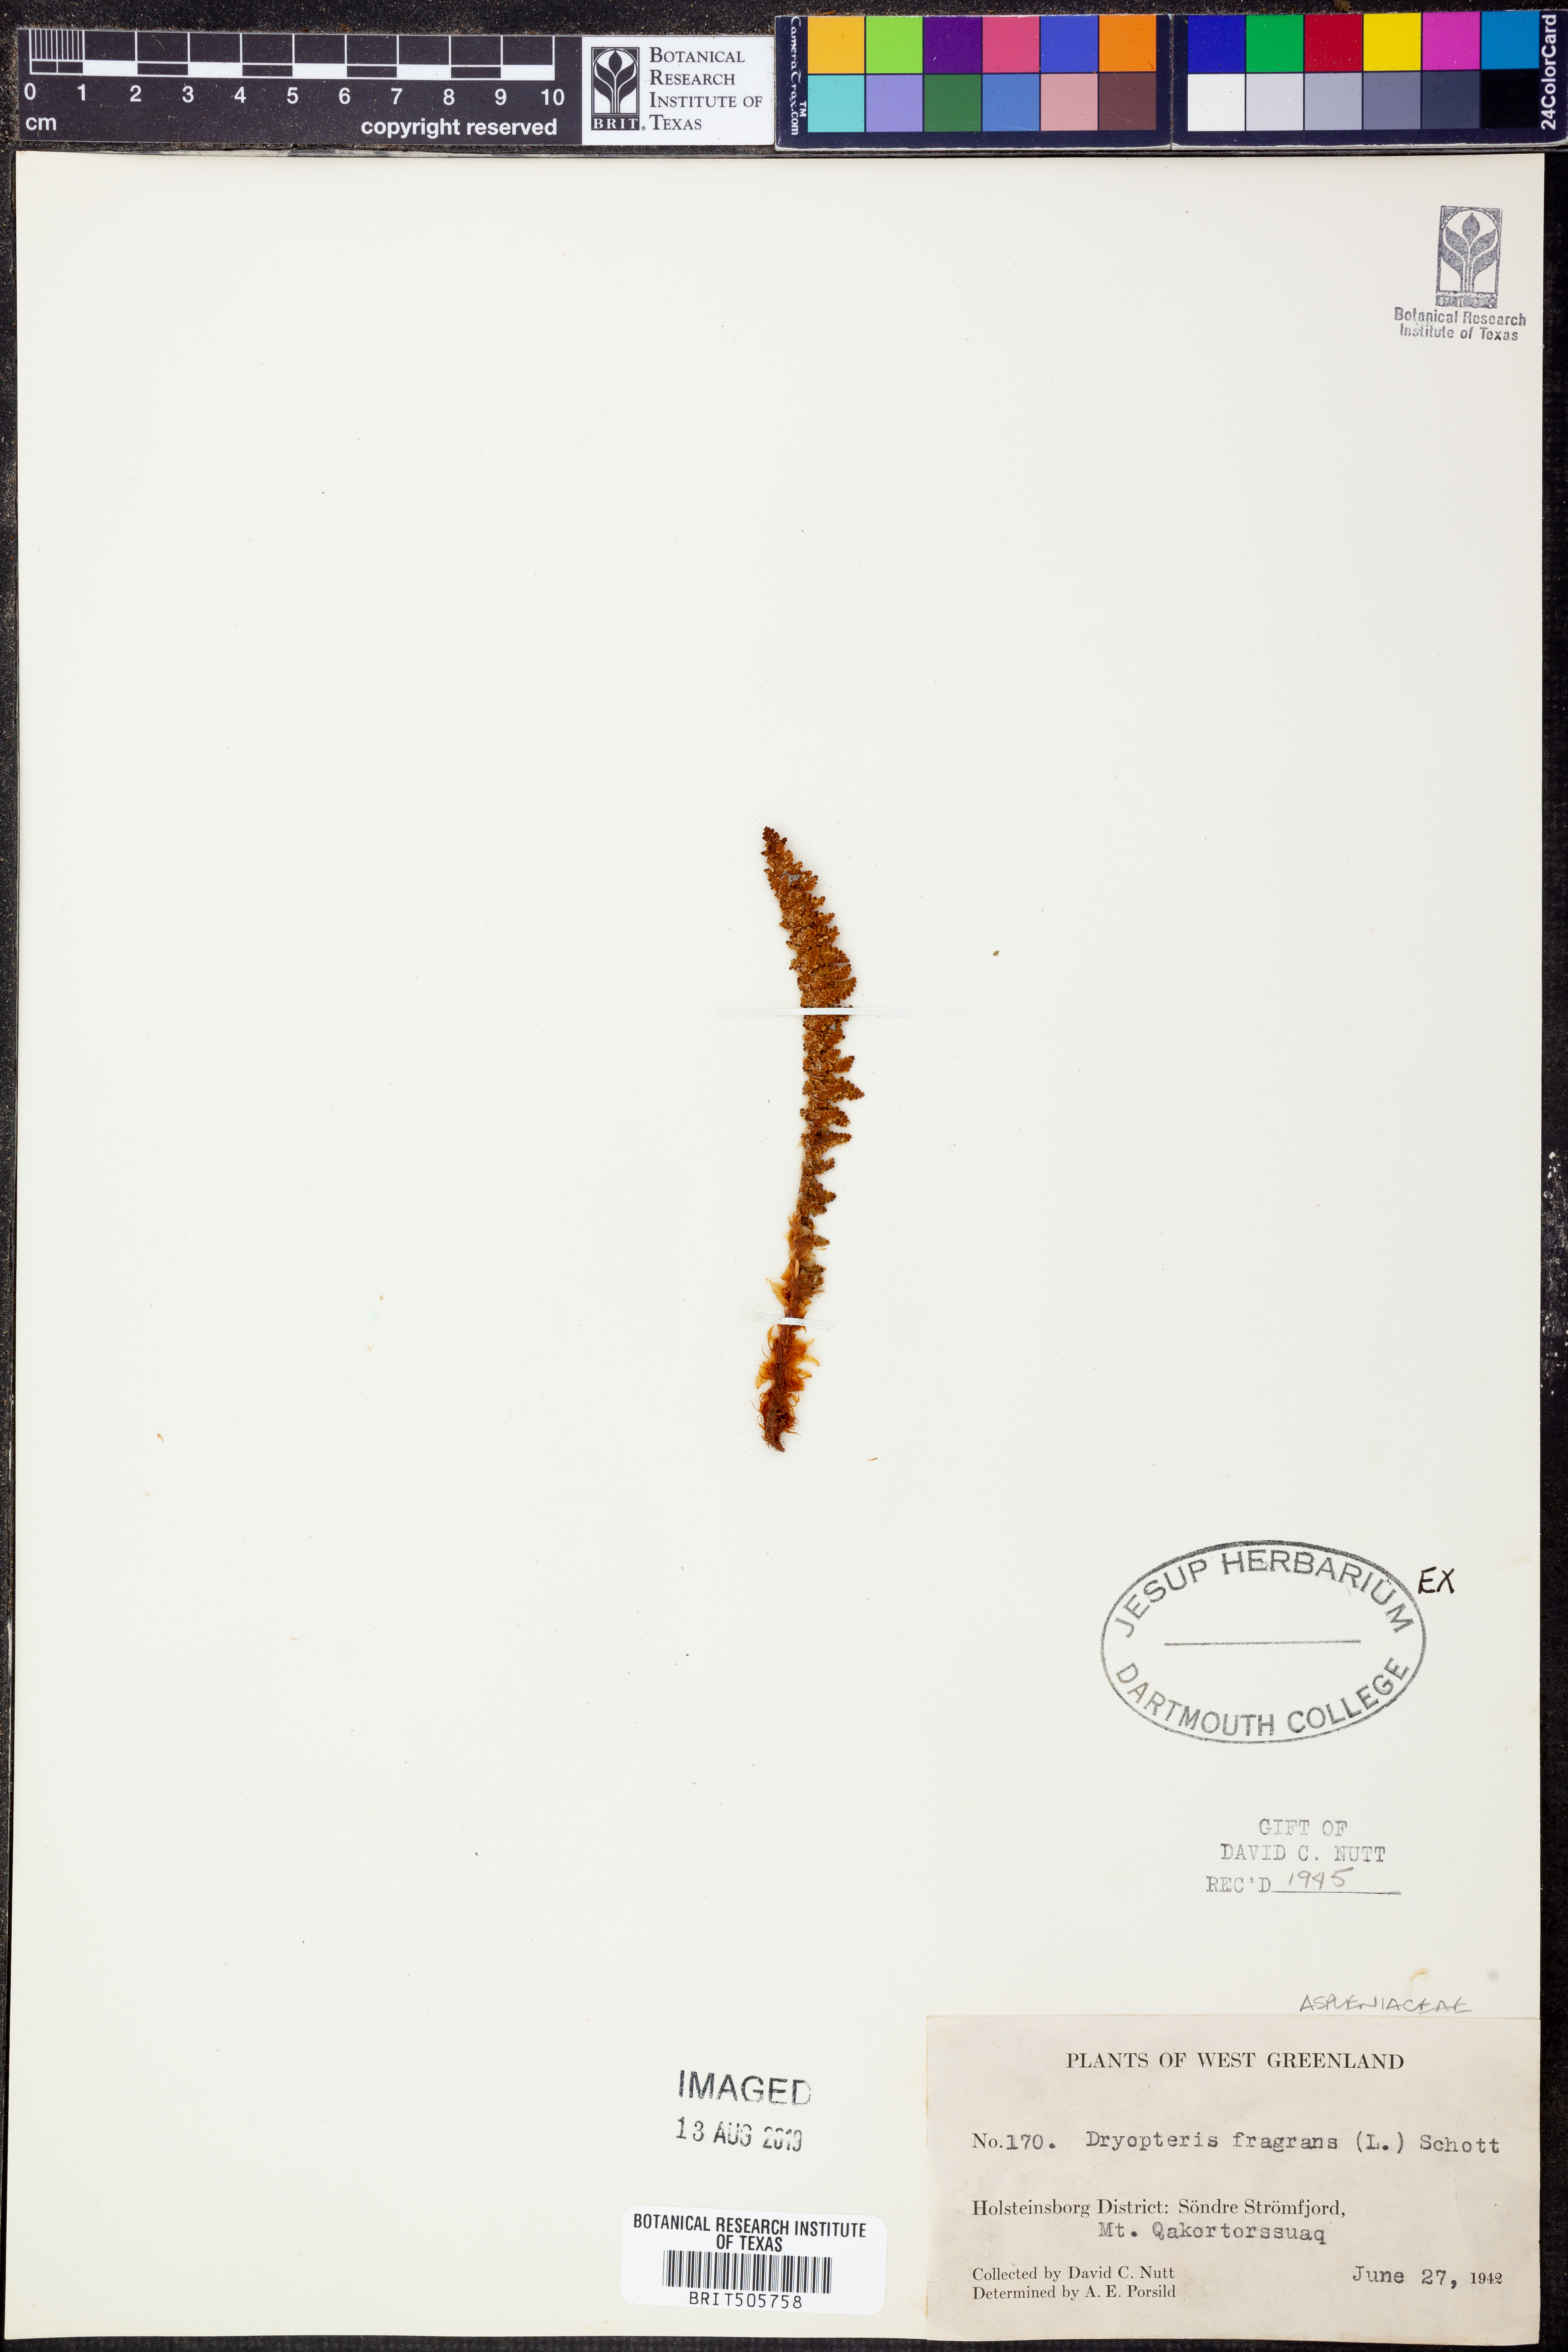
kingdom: Plantae
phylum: Tracheophyta
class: Polypodiopsida
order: Polypodiales
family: Dryopteridaceae
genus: Dryopteris
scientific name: Dryopteris fragrans
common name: Fragrant wood fern
